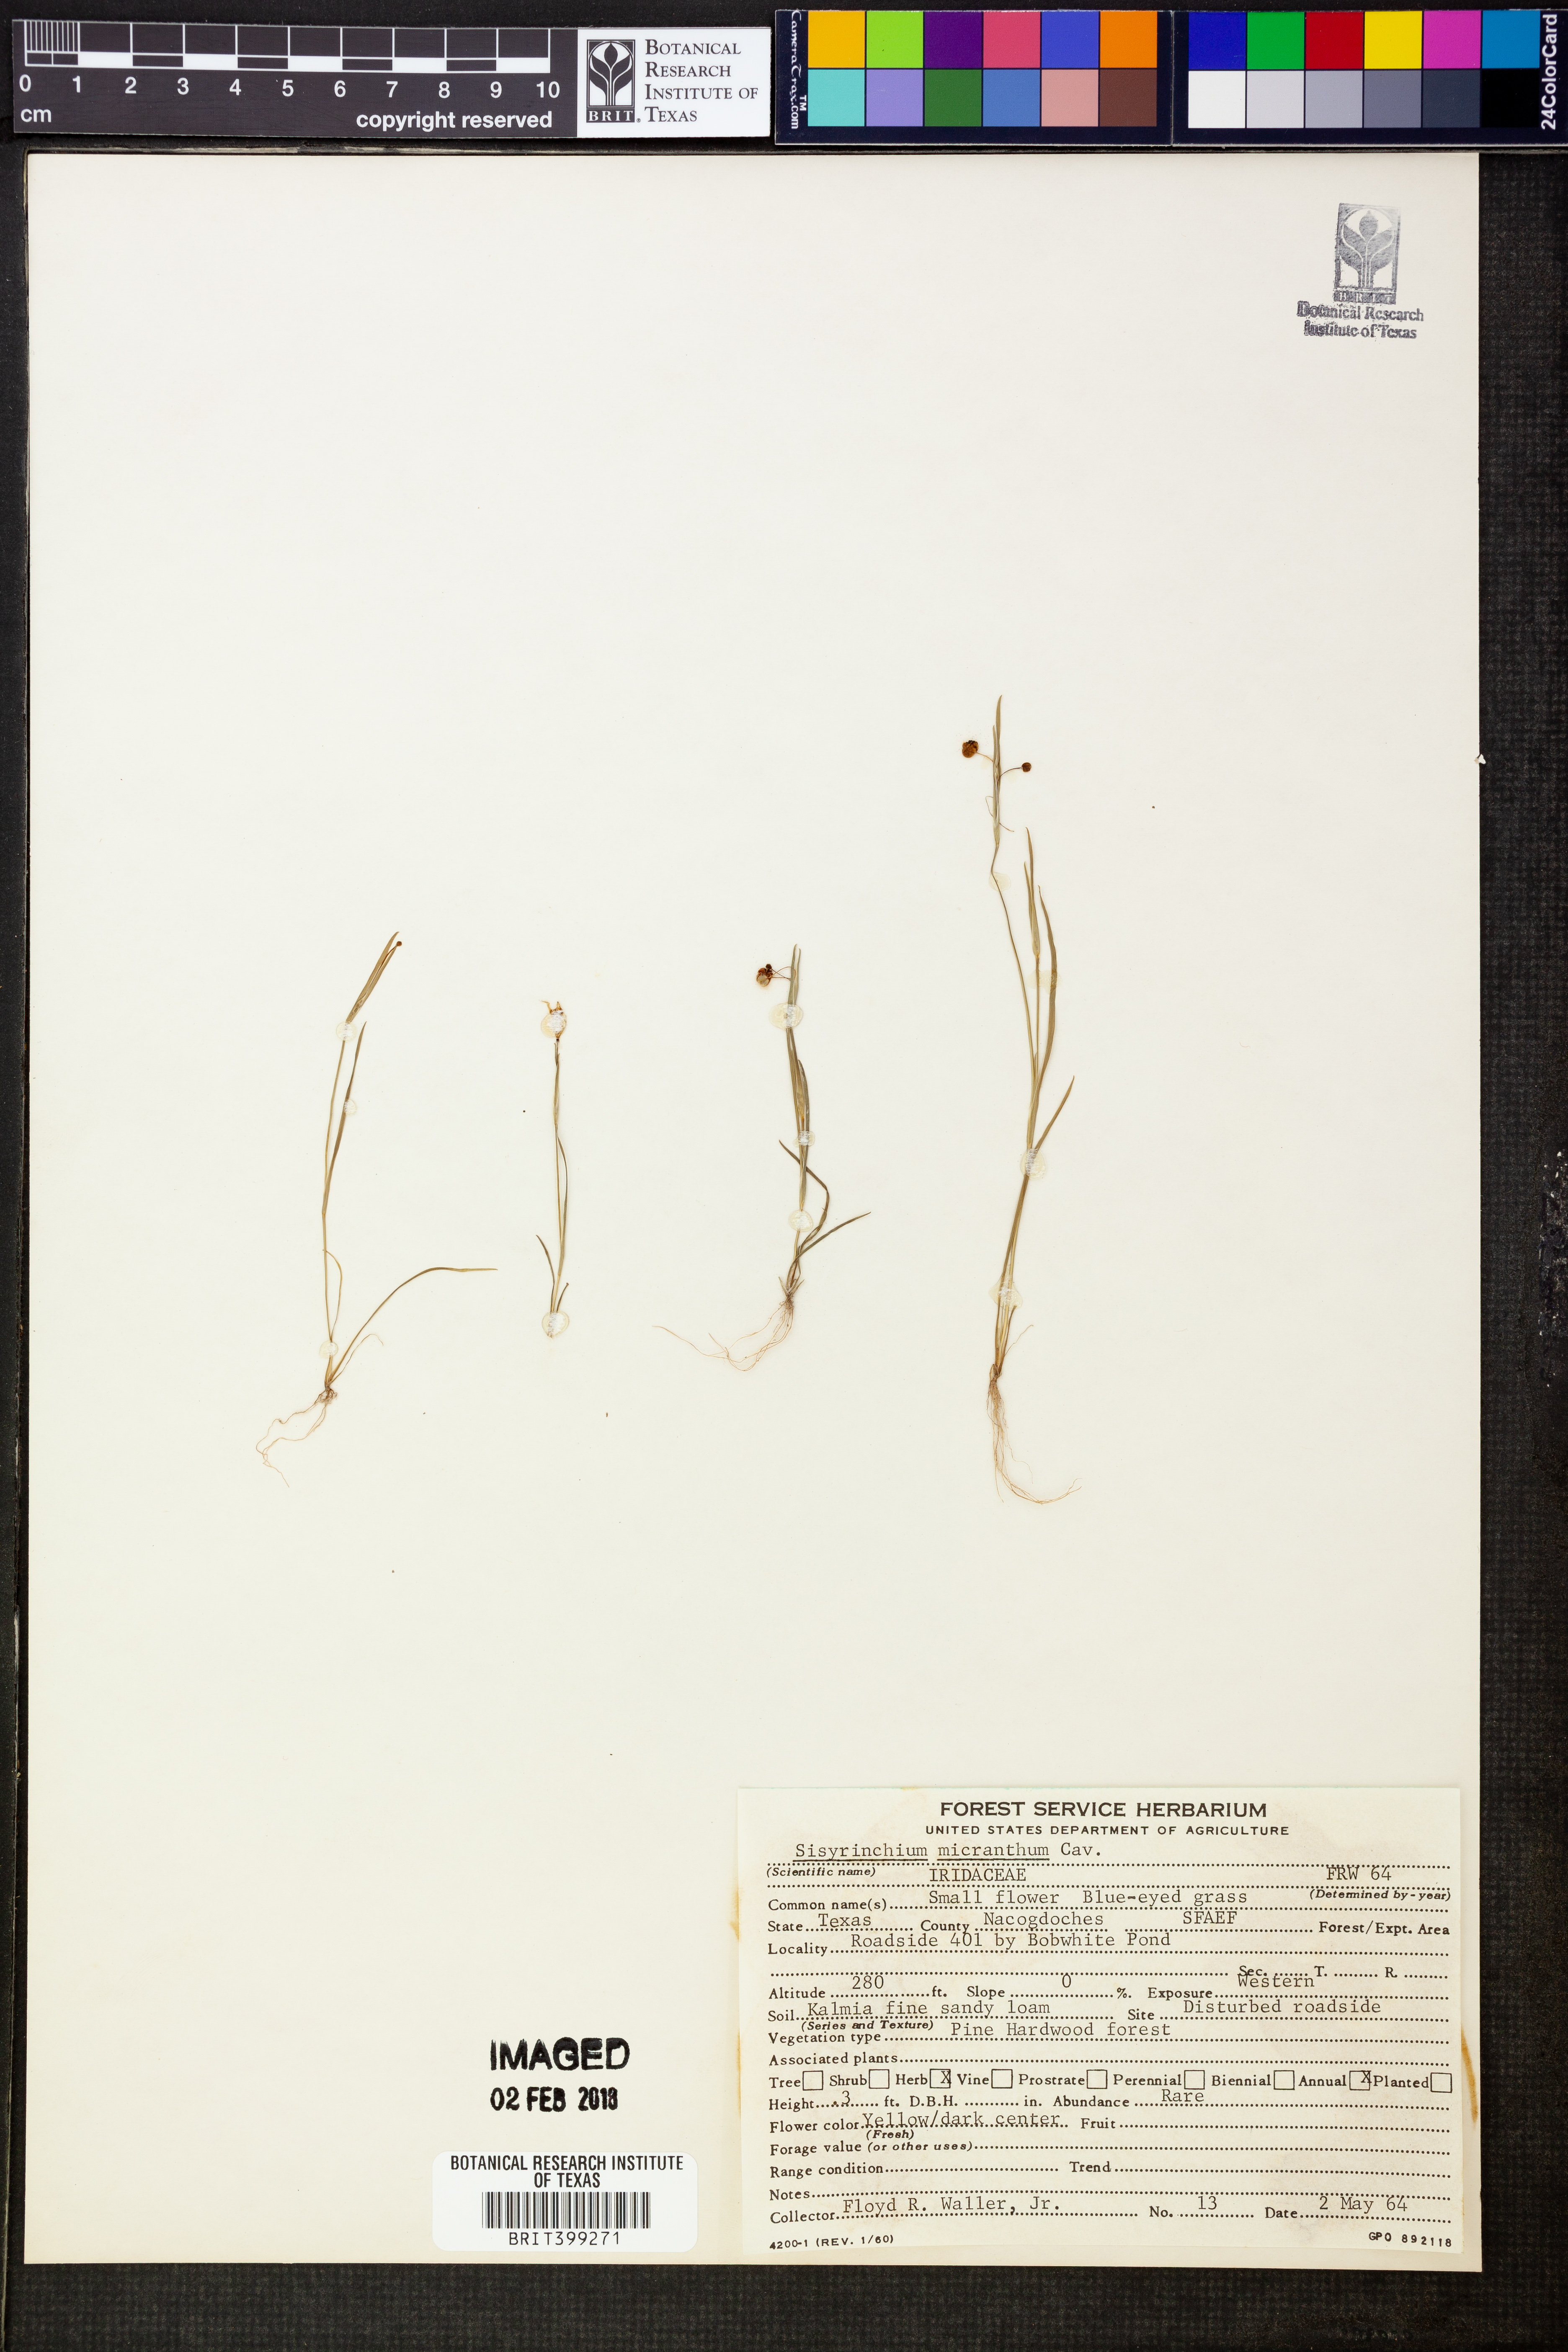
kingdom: Plantae
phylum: Tracheophyta
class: Liliopsida
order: Asparagales
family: Iridaceae
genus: Sisyrinchium
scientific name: Sisyrinchium micranthum
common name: Bermuda pigroot
